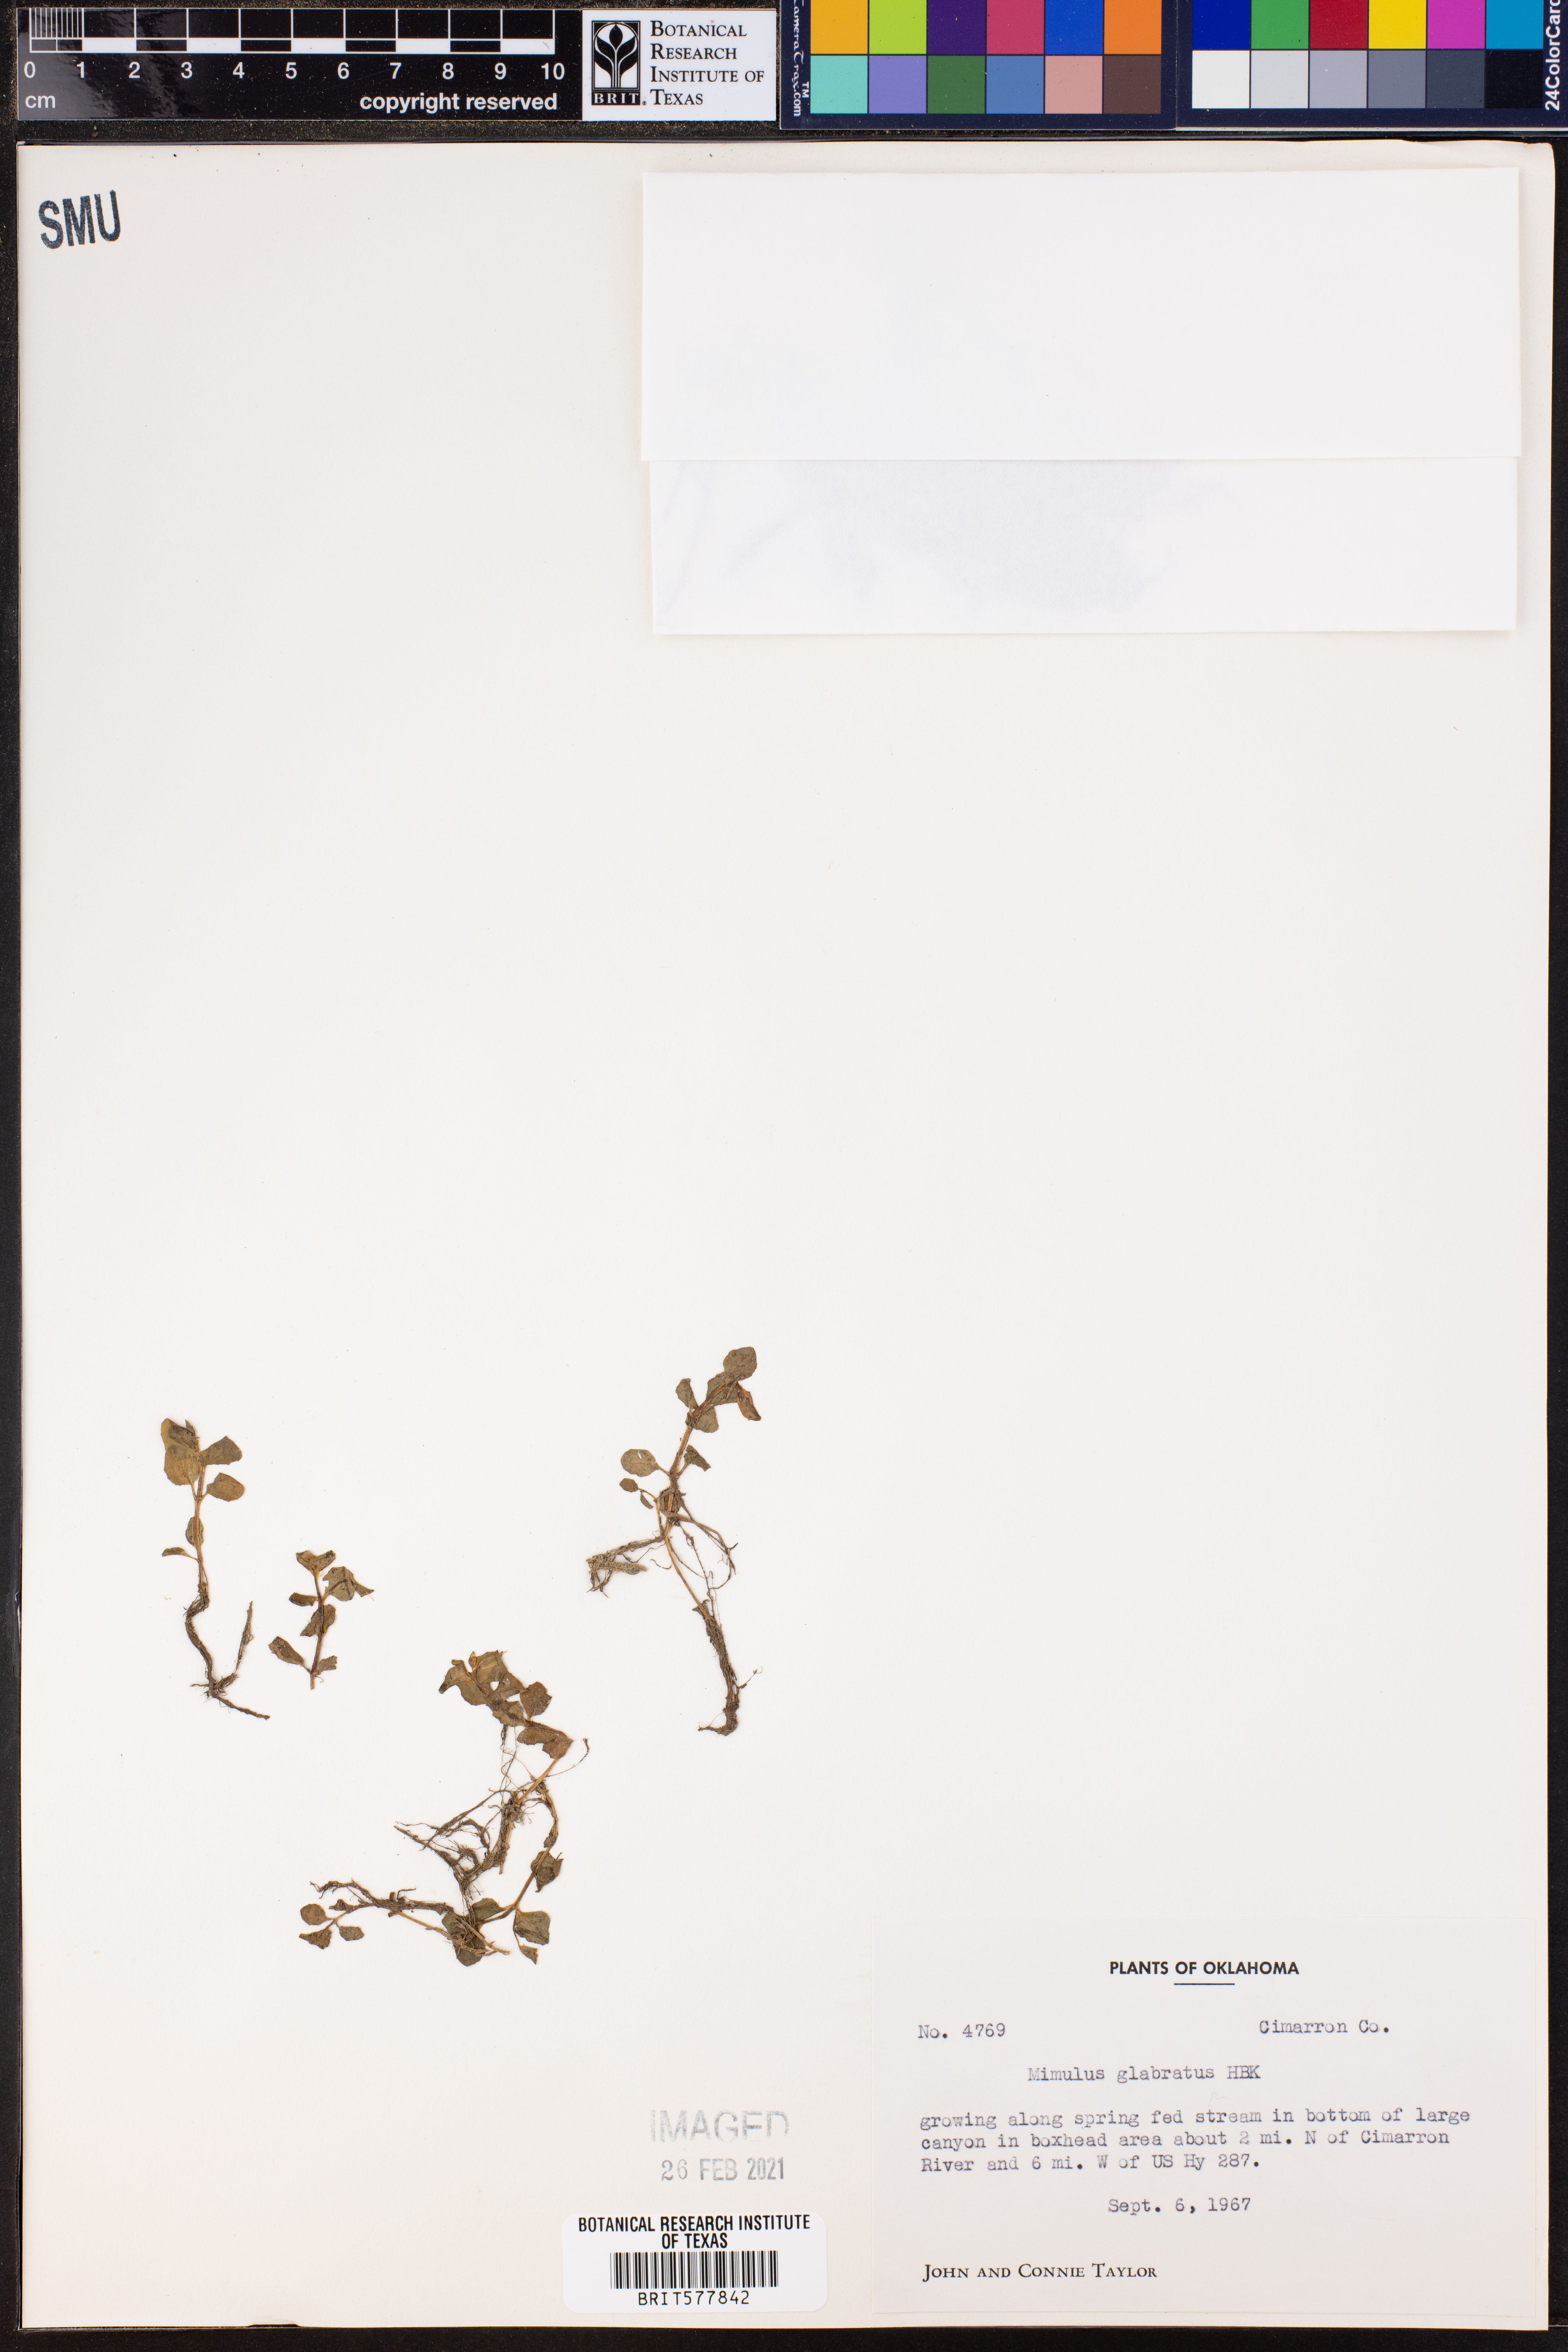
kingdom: Plantae
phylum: Tracheophyta
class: Magnoliopsida
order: Lamiales
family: Phrymaceae
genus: Erythranthe
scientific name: Erythranthe glabrata
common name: Round-leaved monkeyflower
